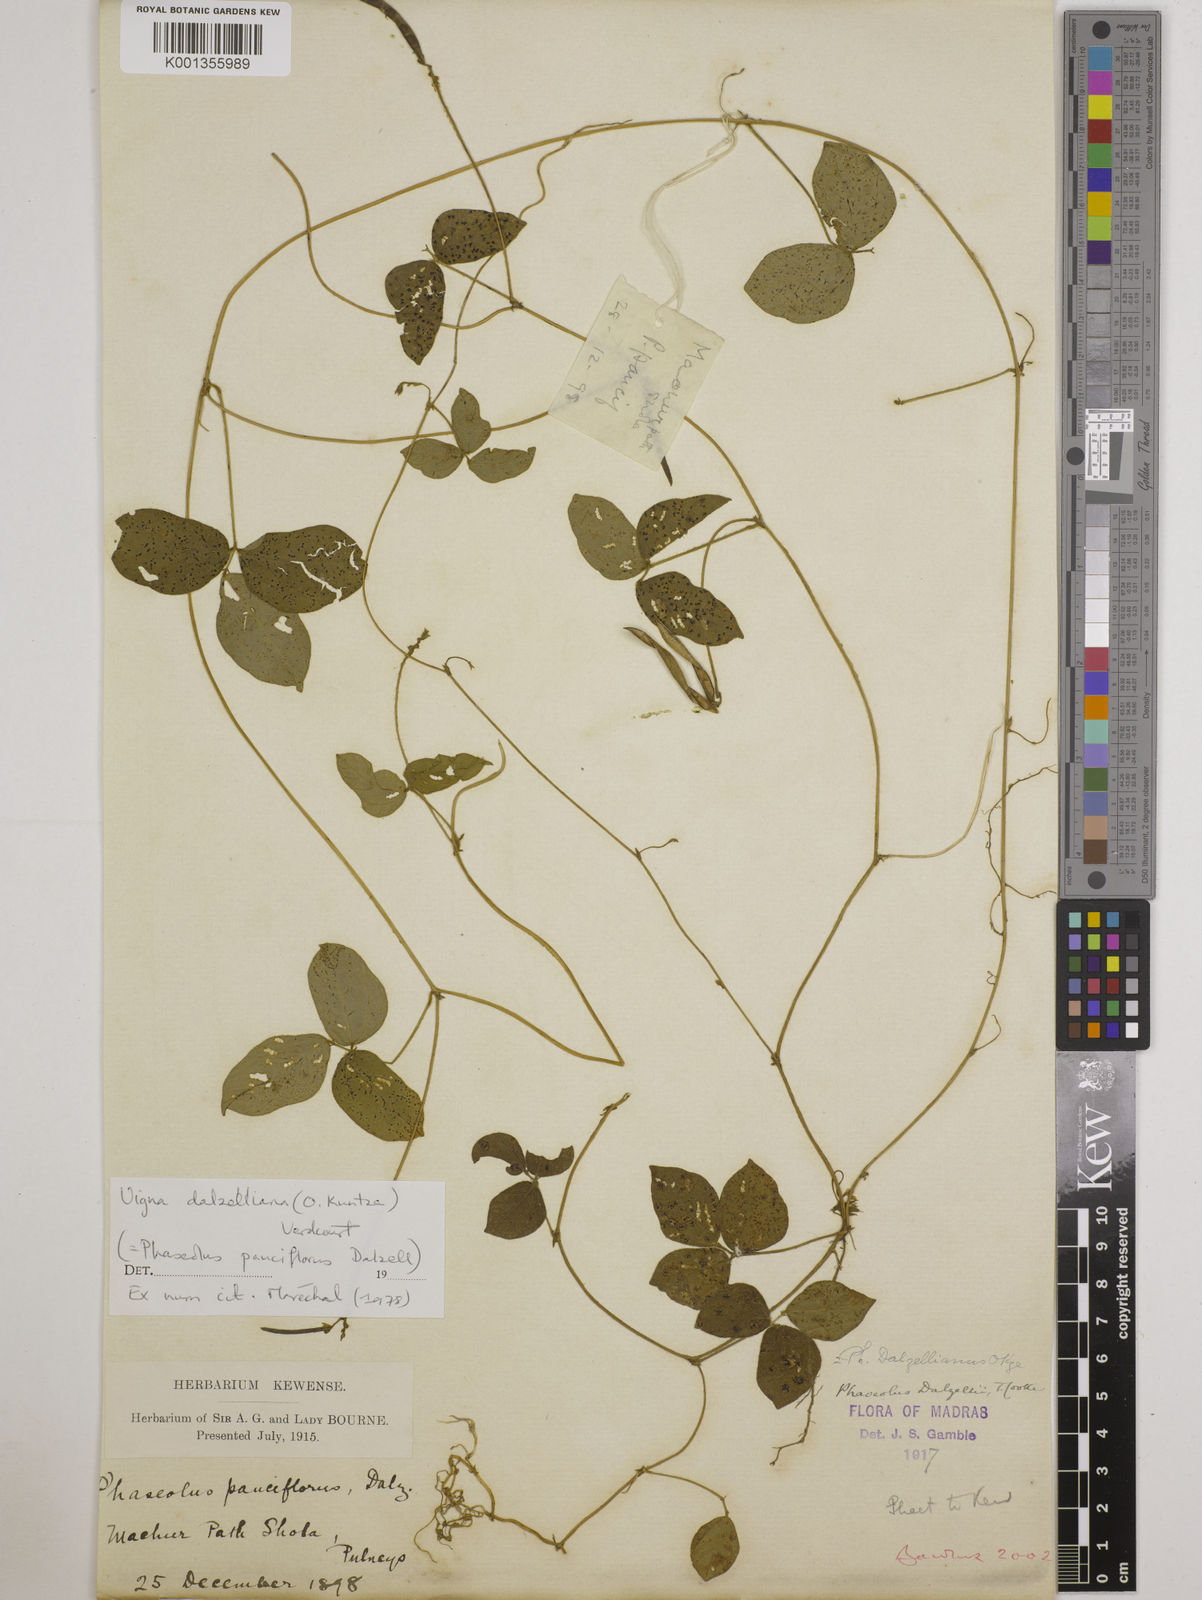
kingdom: Plantae
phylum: Tracheophyta
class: Magnoliopsida
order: Fabales
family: Fabaceae
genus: Vigna
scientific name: Vigna dalzelliana
